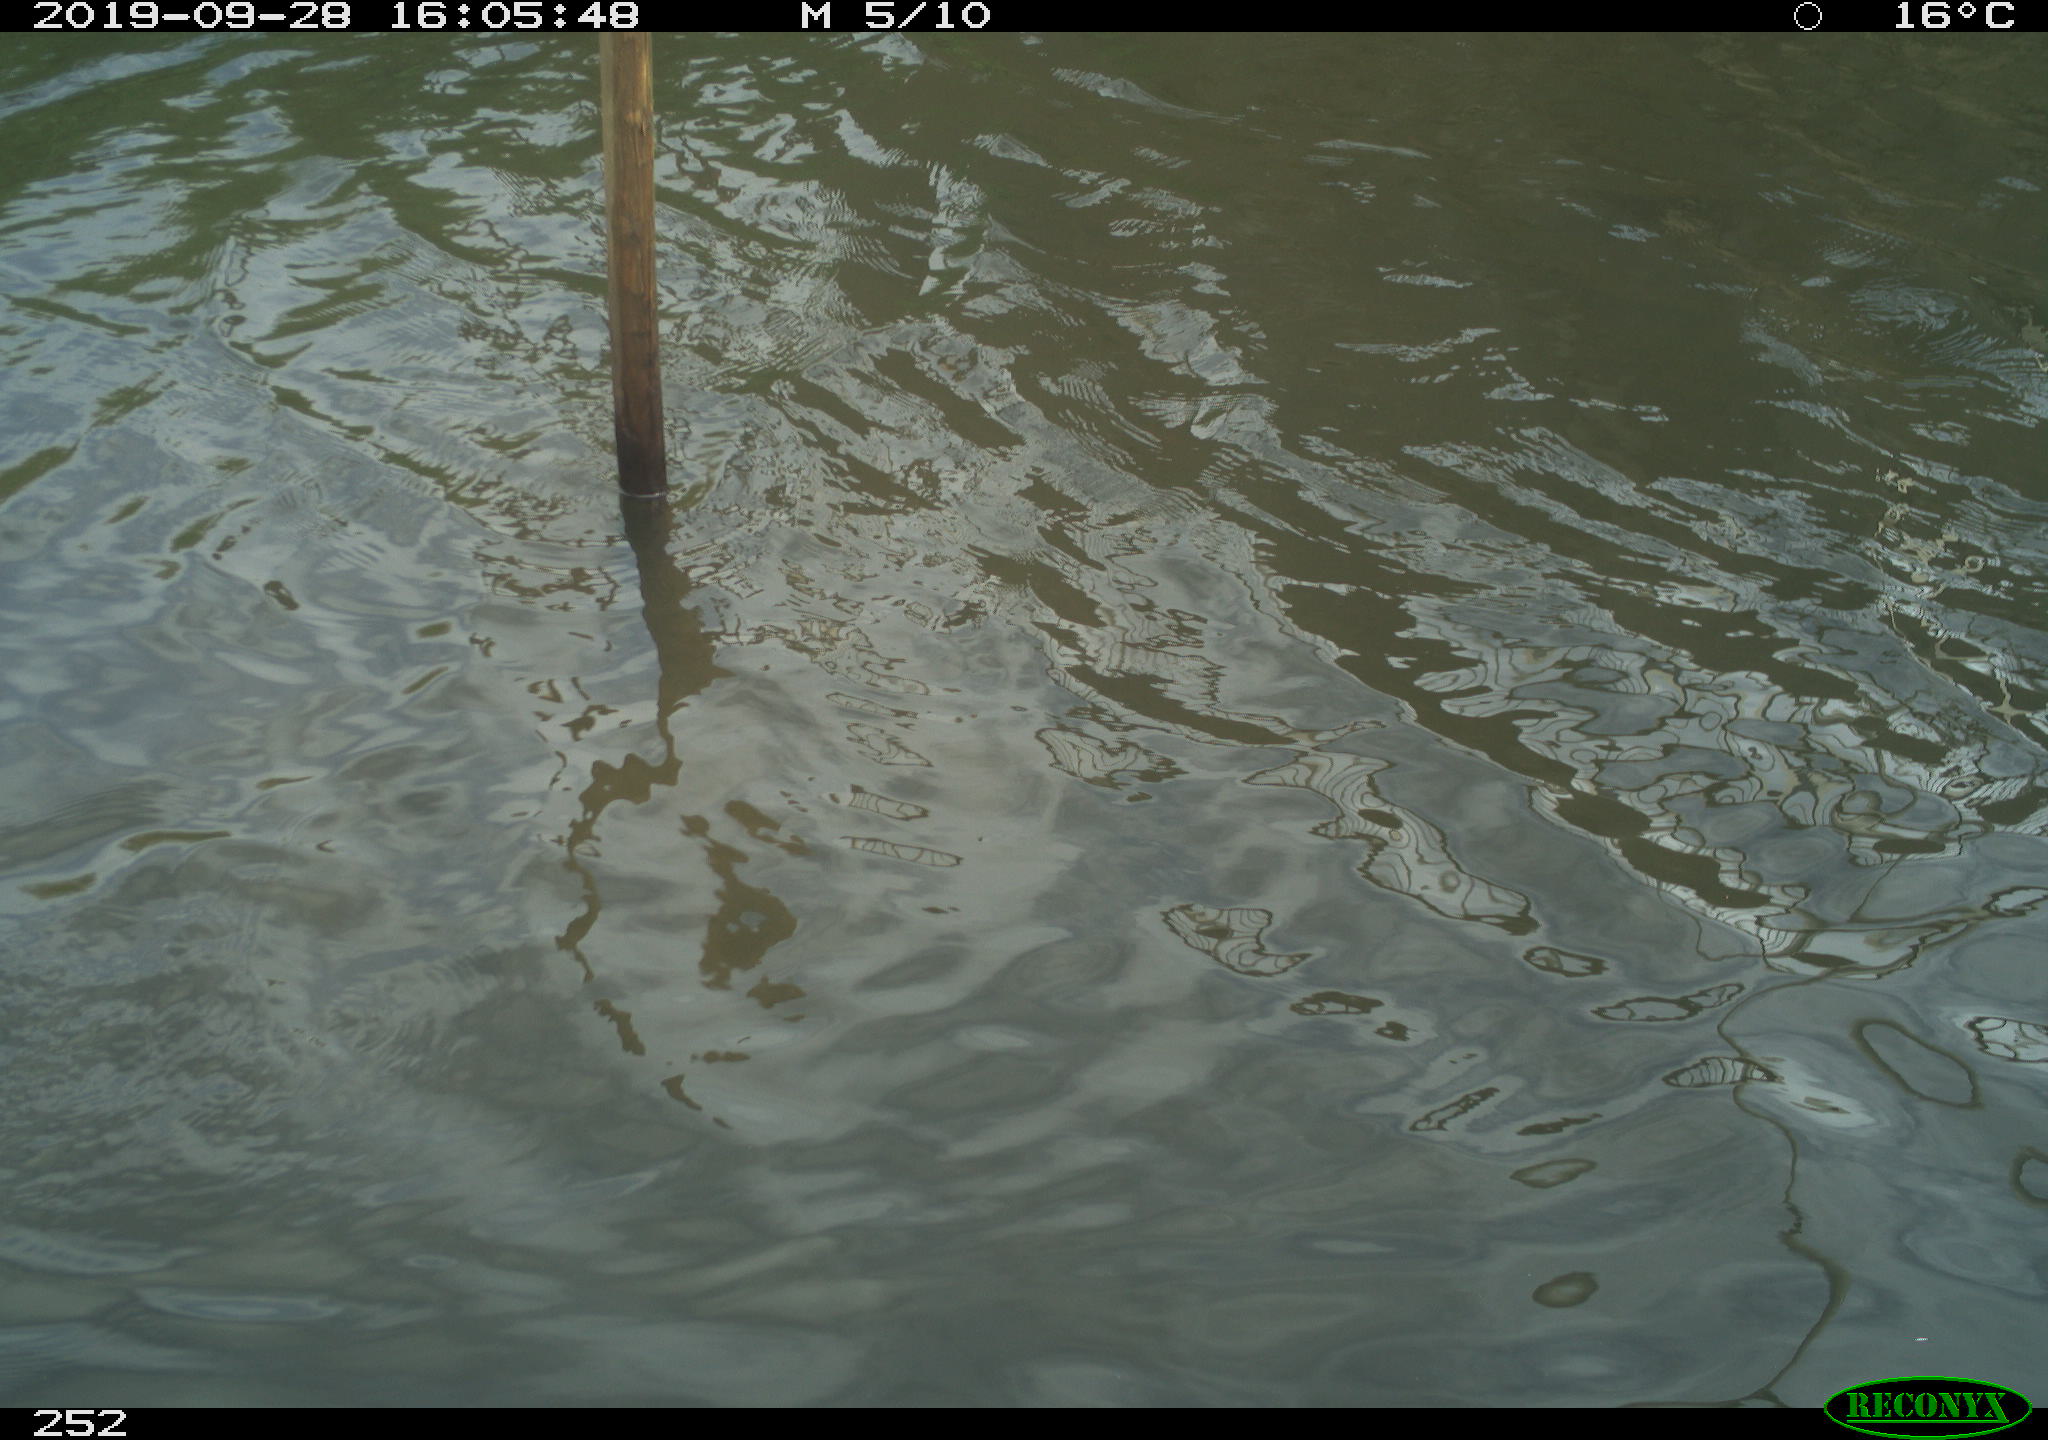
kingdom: Animalia
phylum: Chordata
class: Aves
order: Gruiformes
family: Rallidae
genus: Gallinula
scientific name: Gallinula chloropus
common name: Common moorhen
